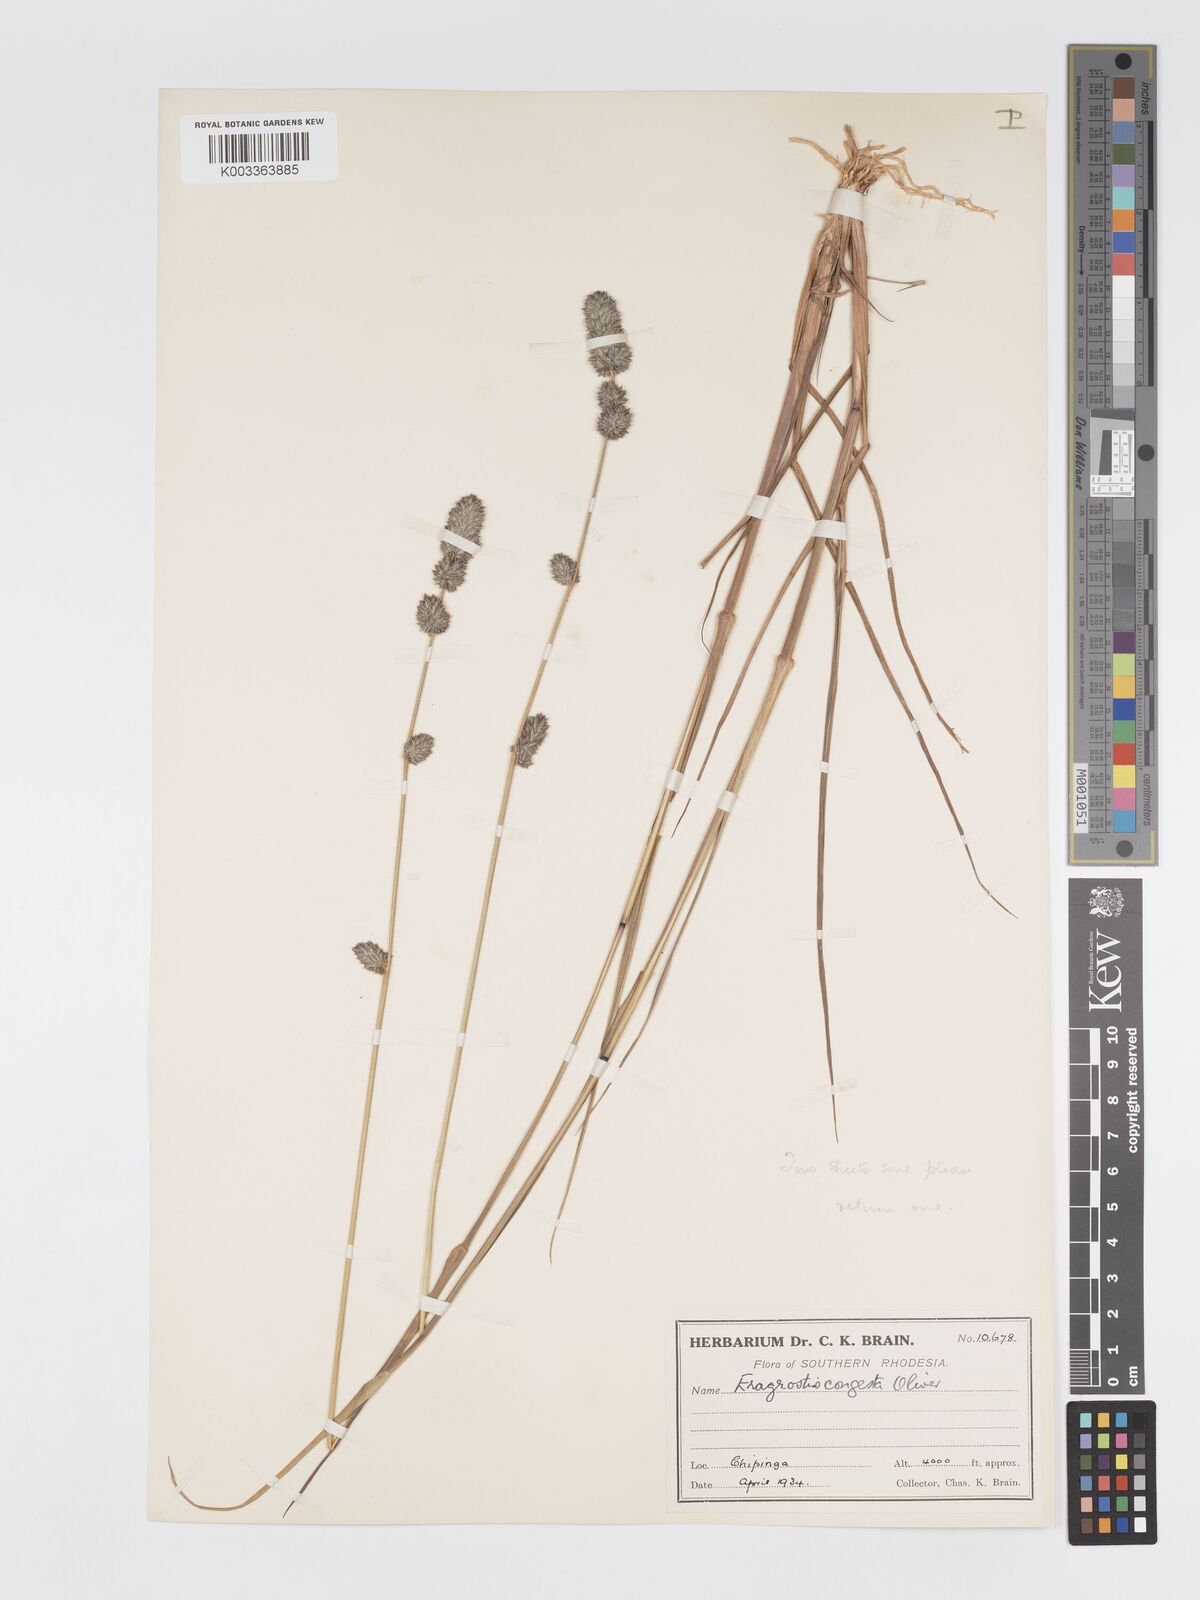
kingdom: Plantae
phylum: Tracheophyta
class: Liliopsida
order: Poales
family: Poaceae
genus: Eragrostis
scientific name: Eragrostis congesta
